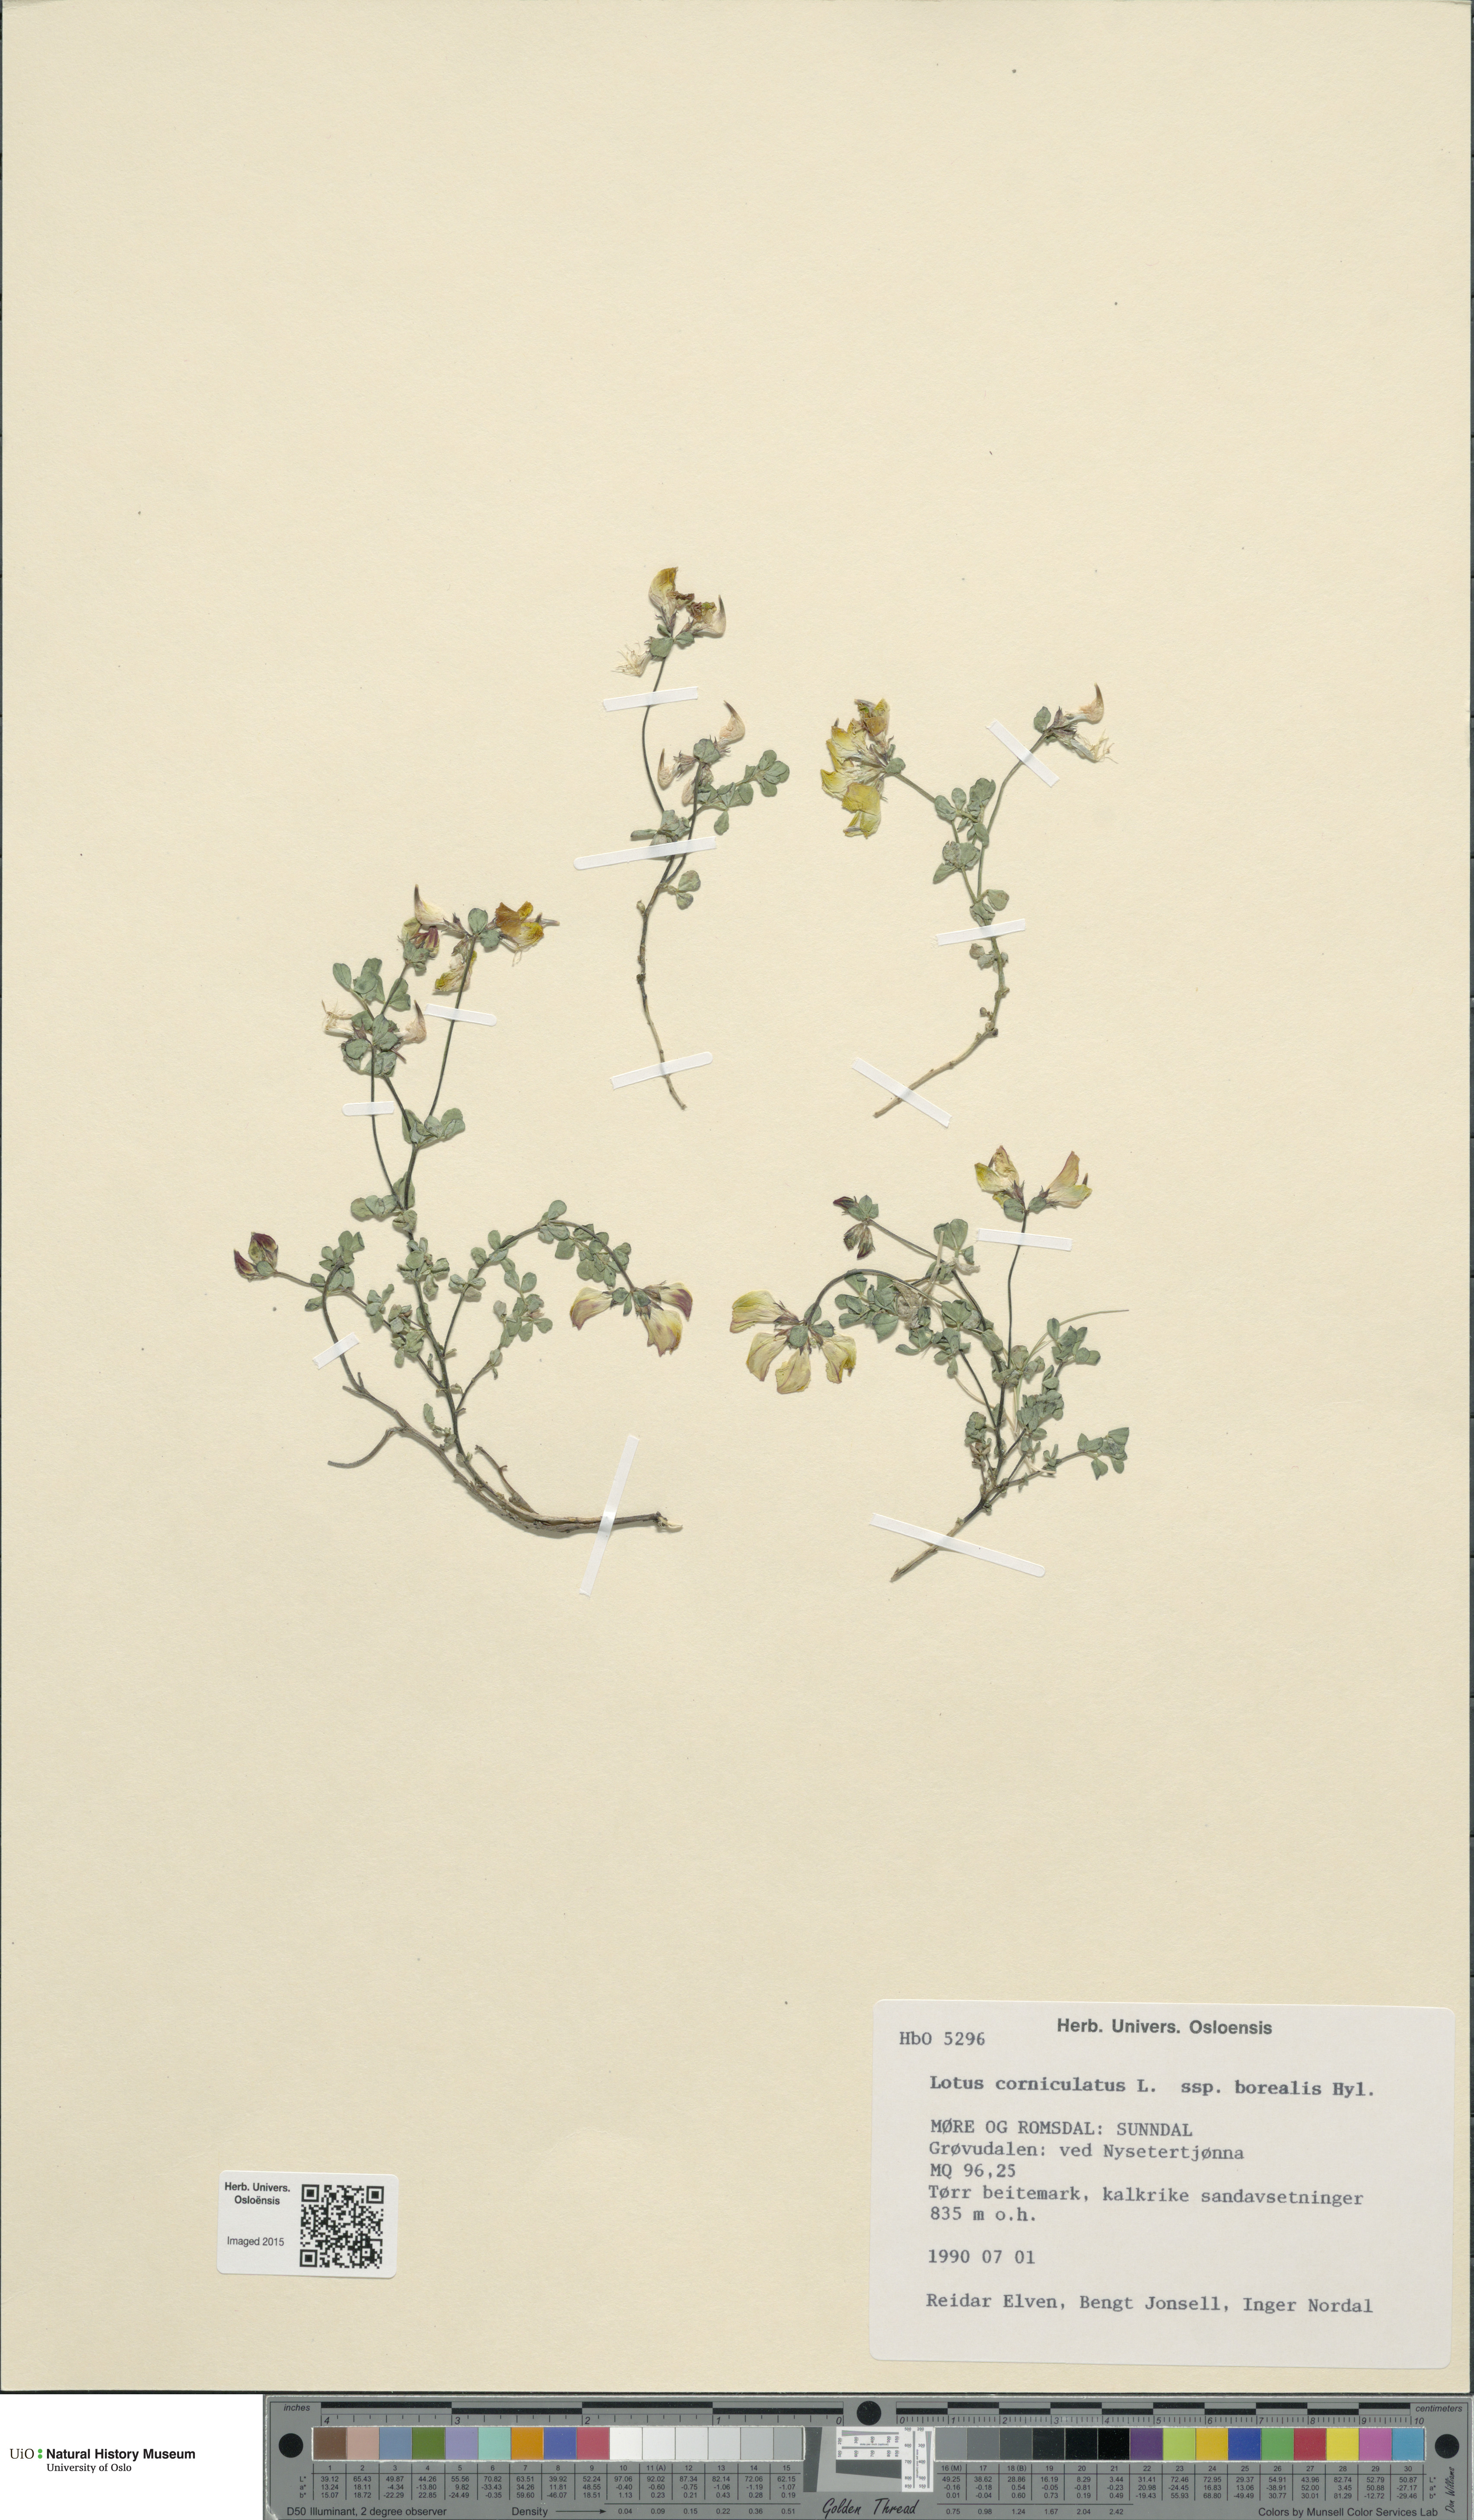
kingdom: Plantae
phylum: Tracheophyta
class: Magnoliopsida
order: Fabales
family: Fabaceae
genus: Lotus
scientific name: Lotus corniculatus
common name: Common bird's-foot-trefoil
